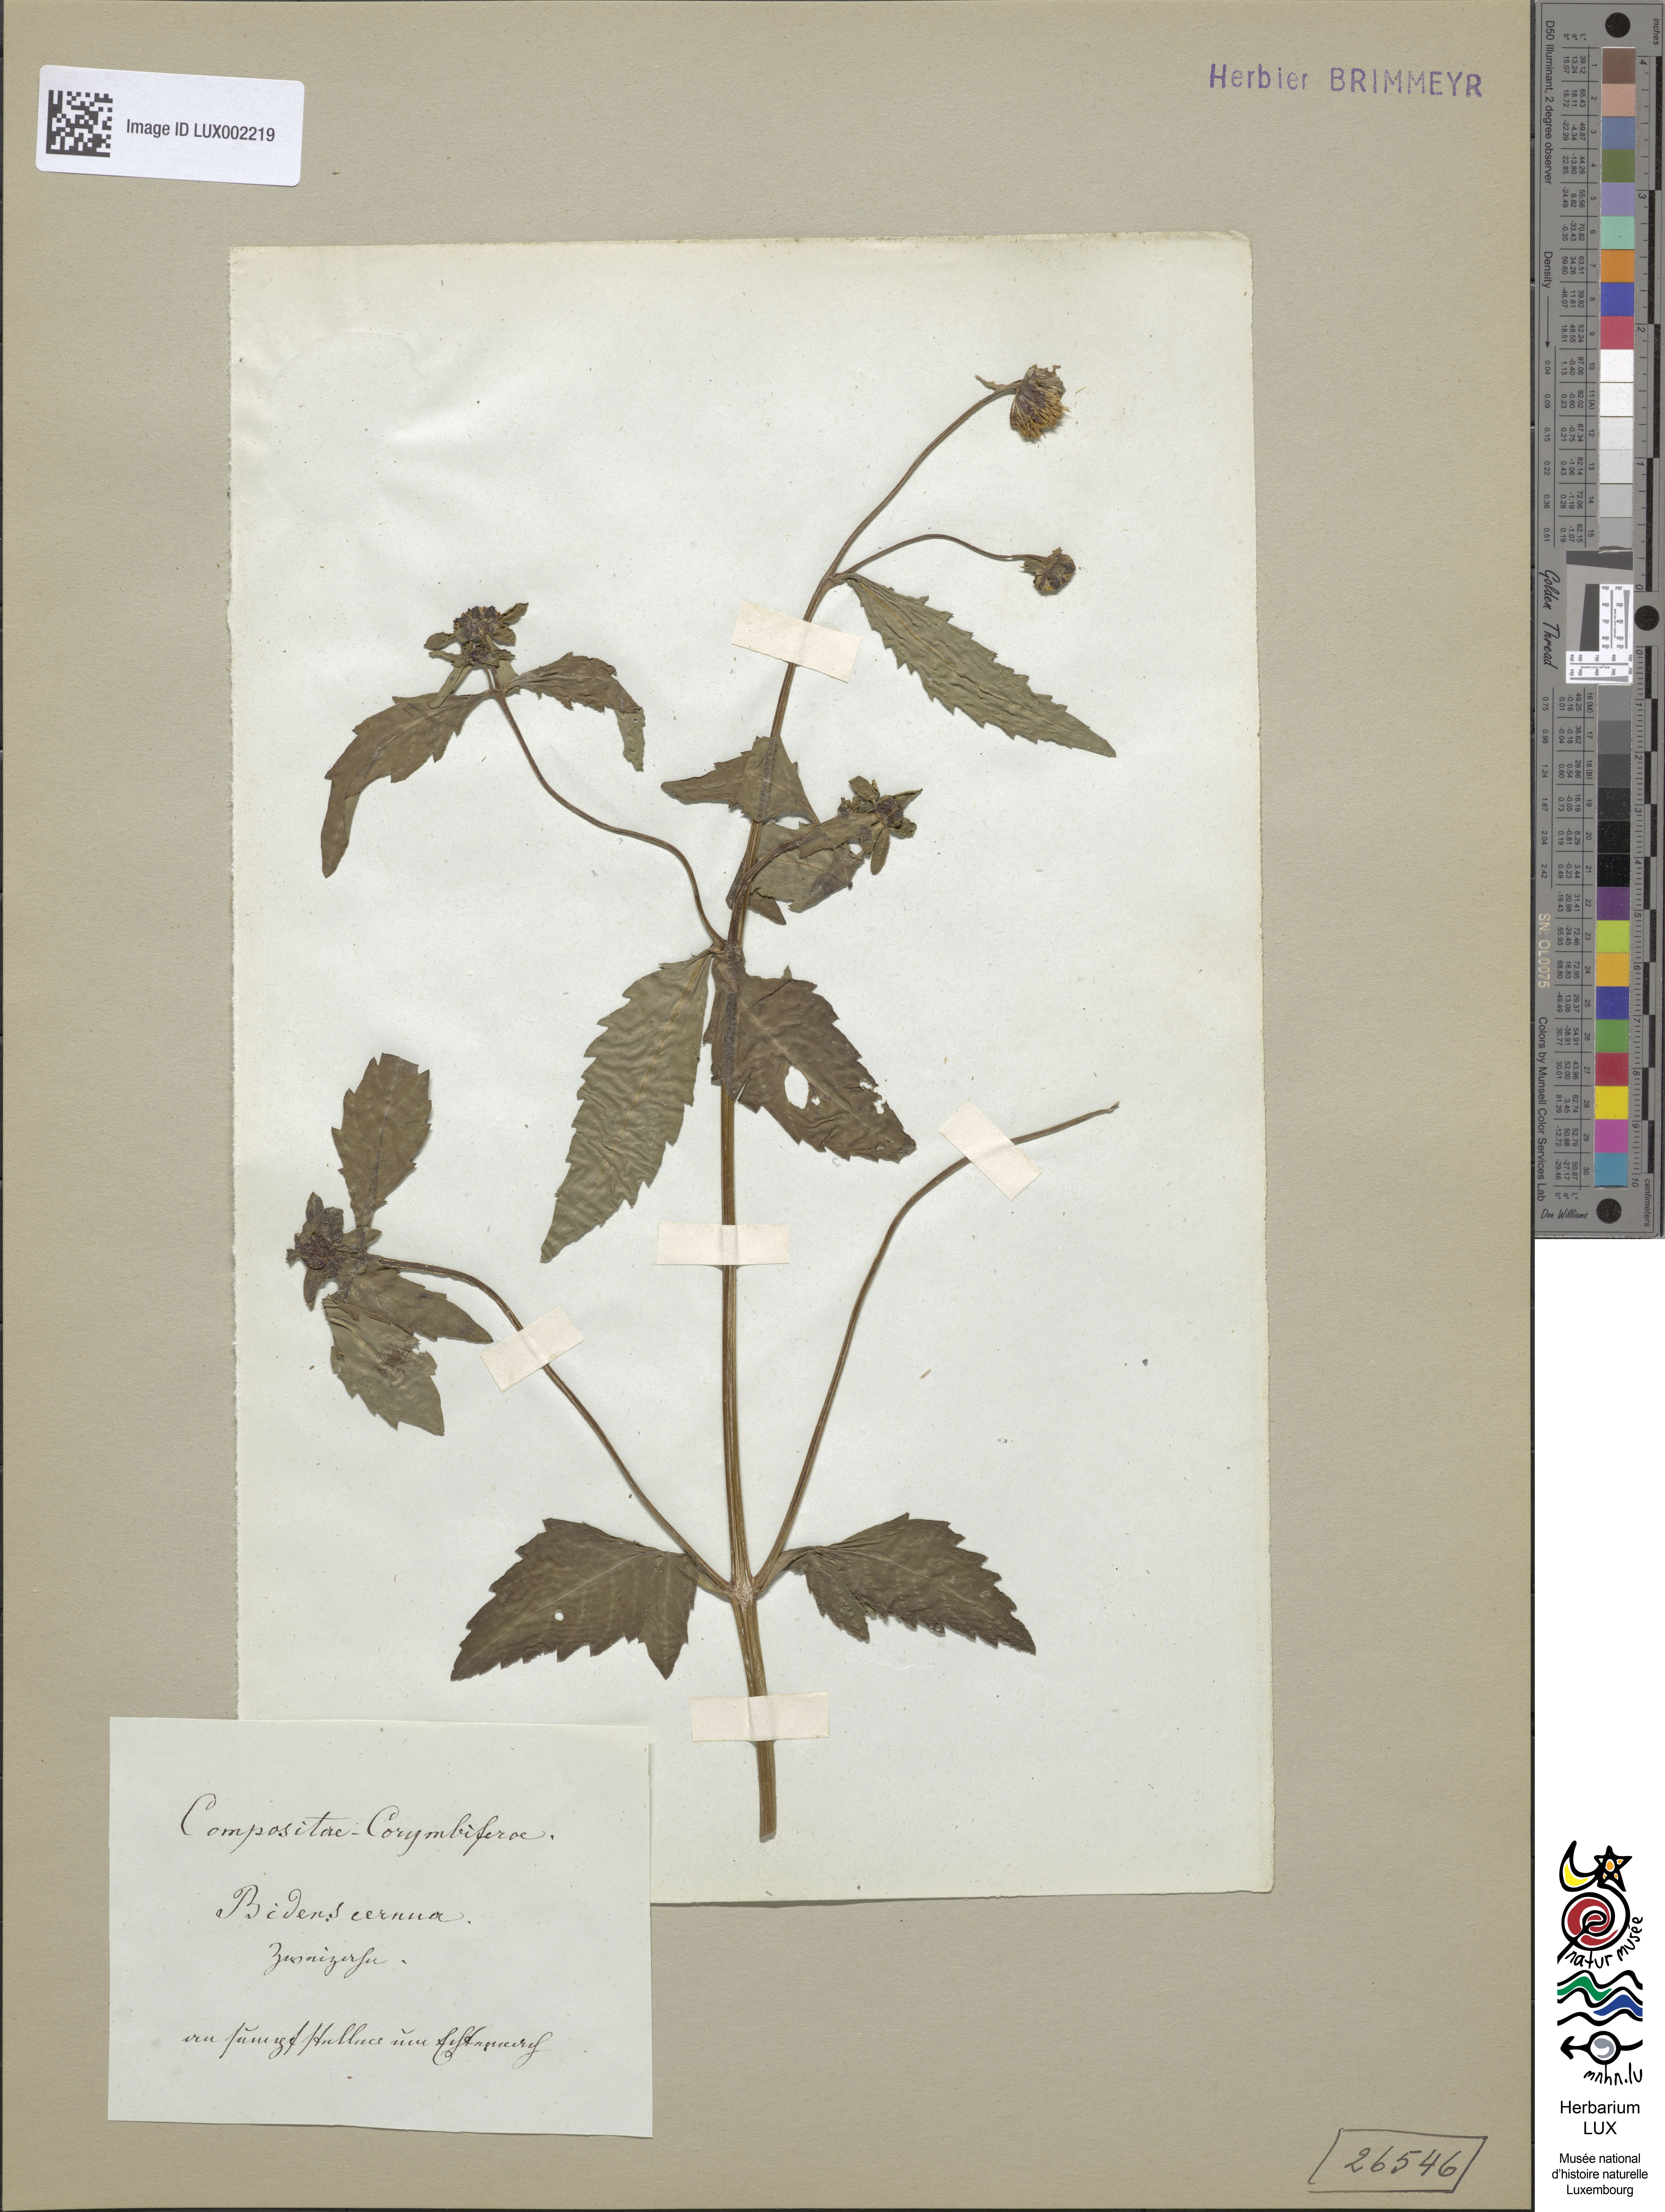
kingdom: Plantae
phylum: Tracheophyta
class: Magnoliopsida
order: Asterales
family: Asteraceae
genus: Bidens
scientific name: Bidens cernua
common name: Nodding bur-marigold
